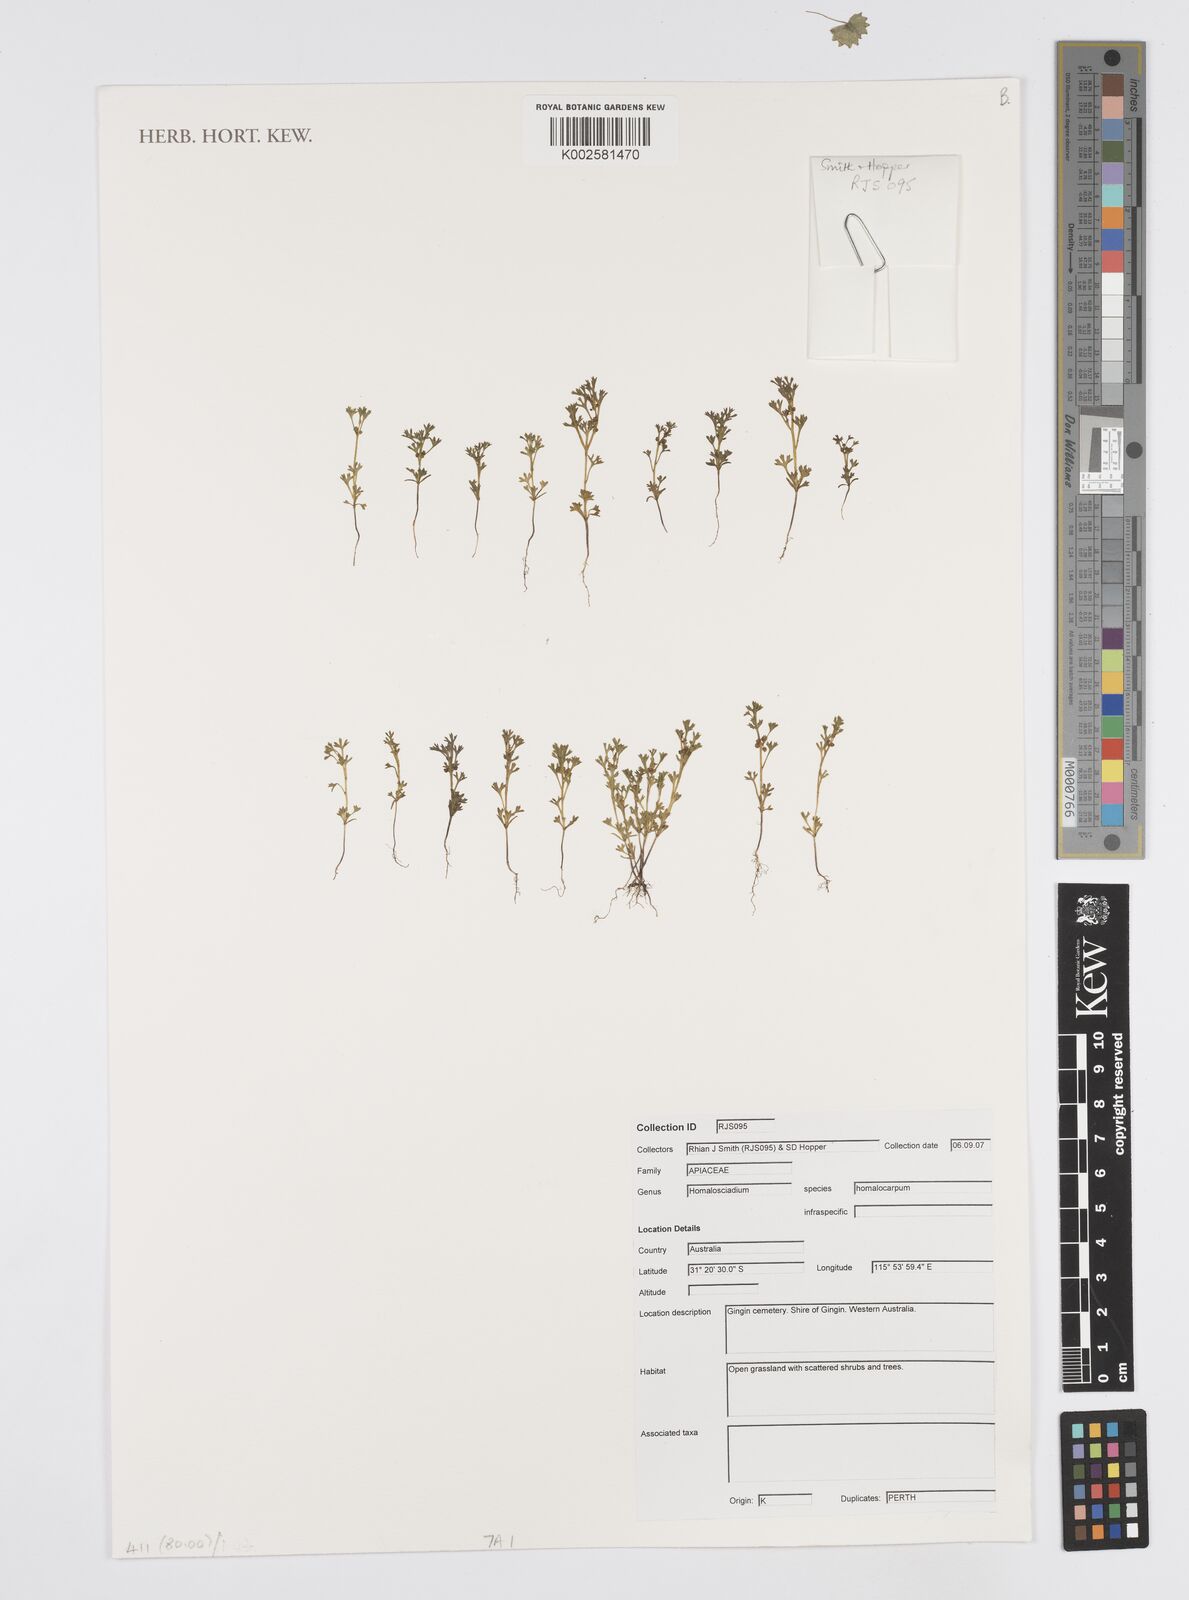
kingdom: Plantae
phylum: Tracheophyta
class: Magnoliopsida
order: Apiales
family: Apiaceae
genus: Homalosciadium
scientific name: Homalosciadium homalocarpum
